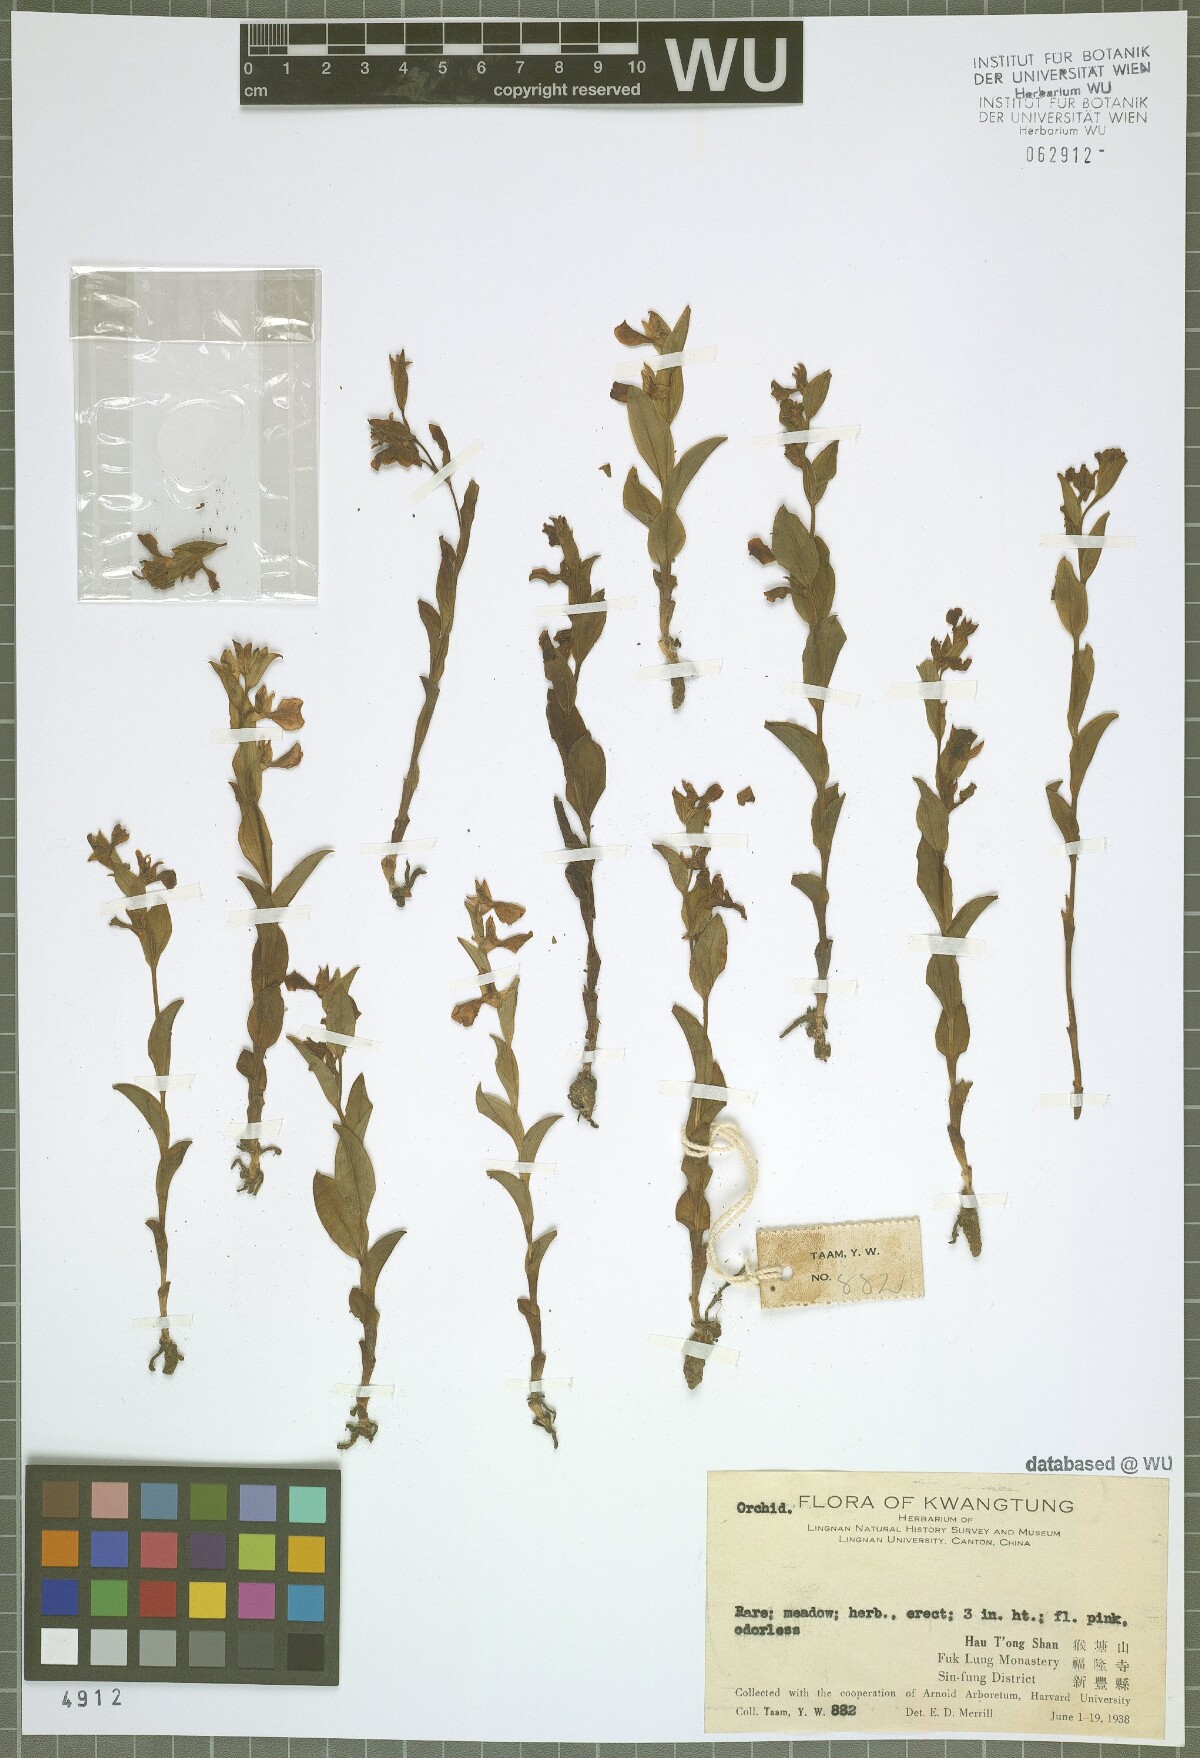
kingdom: Plantae
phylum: Tracheophyta
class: Liliopsida
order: Asparagales
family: Orchidaceae
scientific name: Orchidaceae
